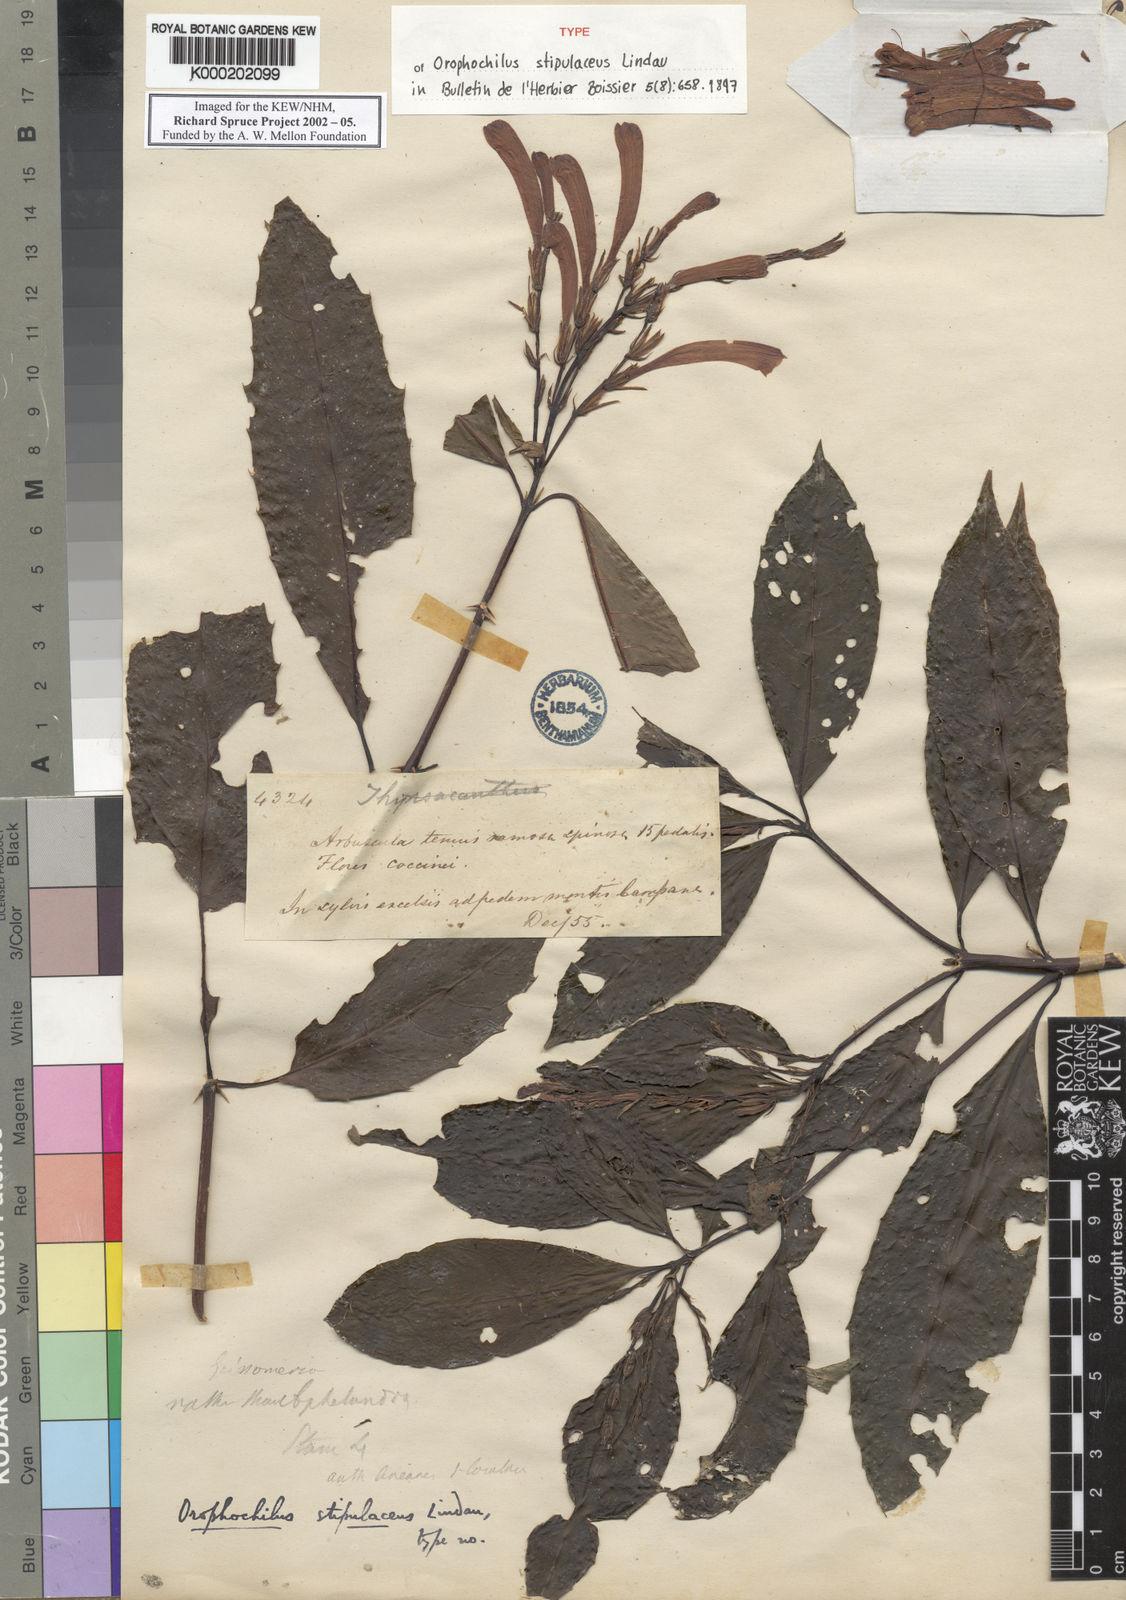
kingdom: Plantae
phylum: Tracheophyta
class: Magnoliopsida
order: Lamiales
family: Acanthaceae
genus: Aphelandra
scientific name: Aphelandra stipulacea
